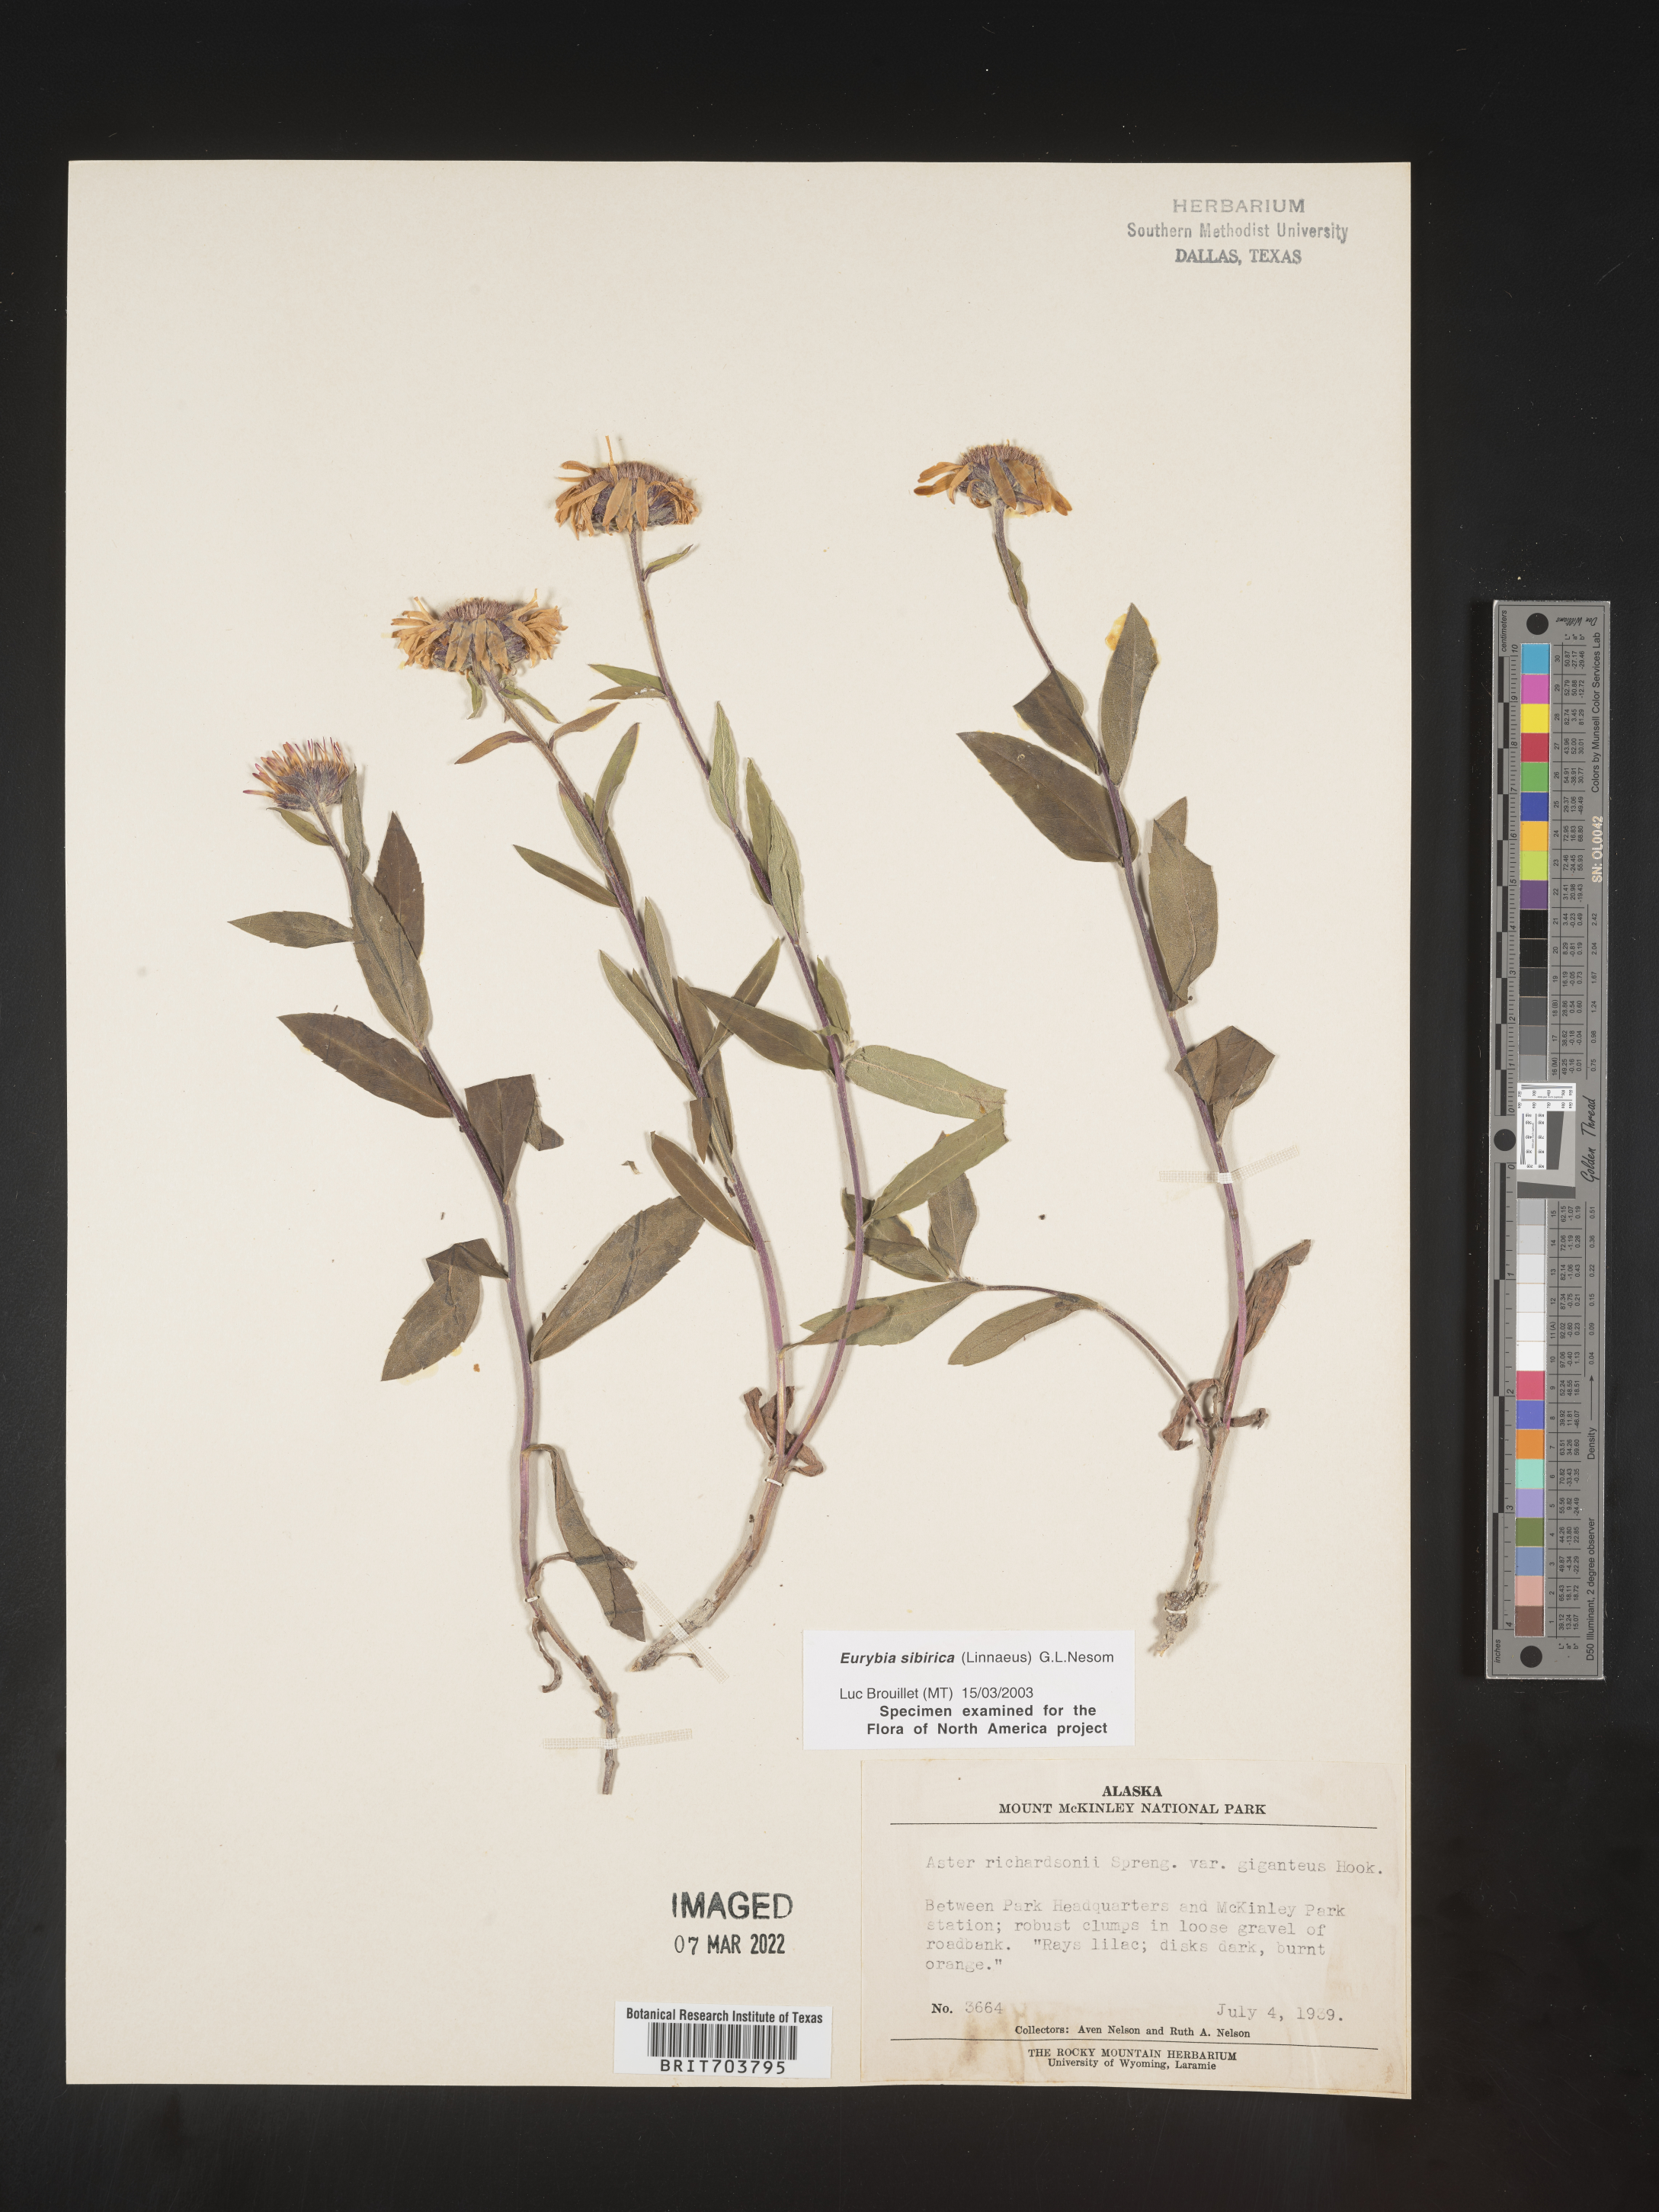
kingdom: Plantae
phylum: Tracheophyta
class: Magnoliopsida
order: Asterales
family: Asteraceae
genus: Eurybia
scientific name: Eurybia sibirica
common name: Arctic aster
